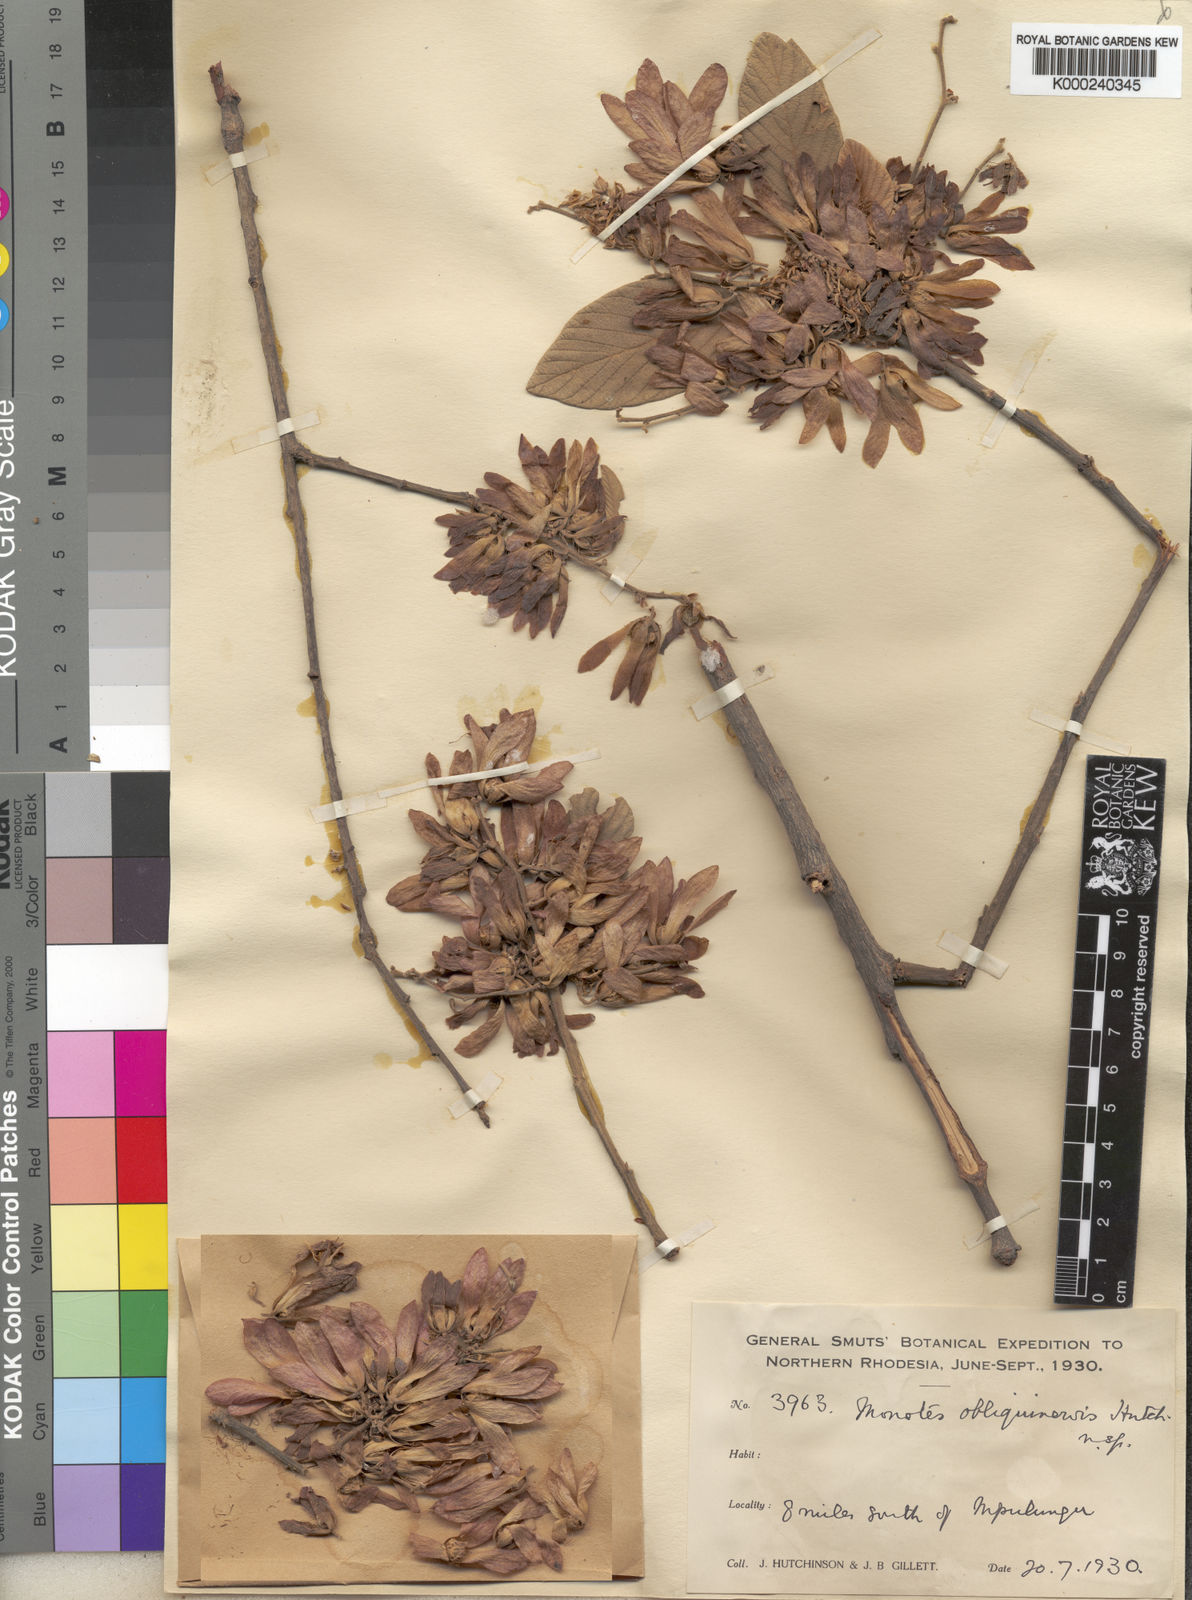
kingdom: Plantae
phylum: Tracheophyta
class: Magnoliopsida
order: Malvales
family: Dipterocarpaceae
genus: Monotes
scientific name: Monotes katangensis
